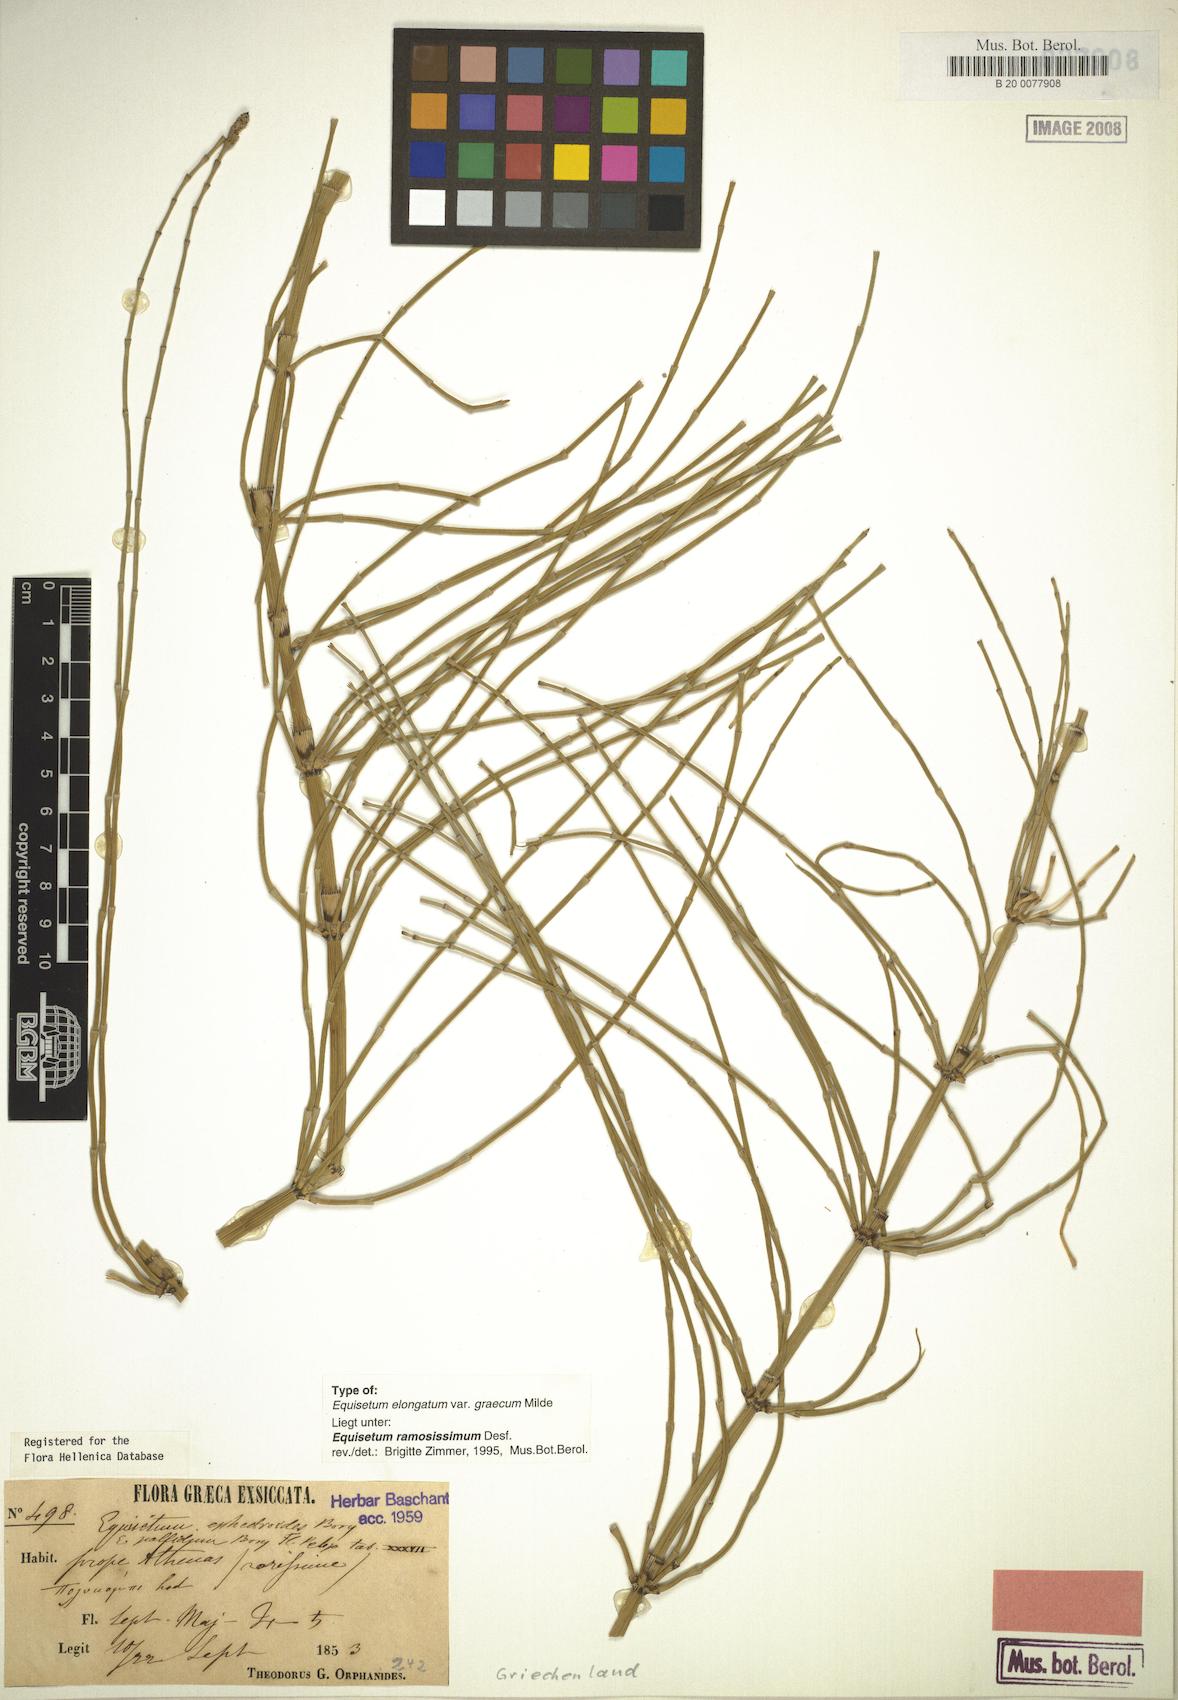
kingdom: Plantae
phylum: Tracheophyta
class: Polypodiopsida
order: Equisetales
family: Equisetaceae
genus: Equisetum
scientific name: Equisetum ramosissimum
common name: Branched horsetail
